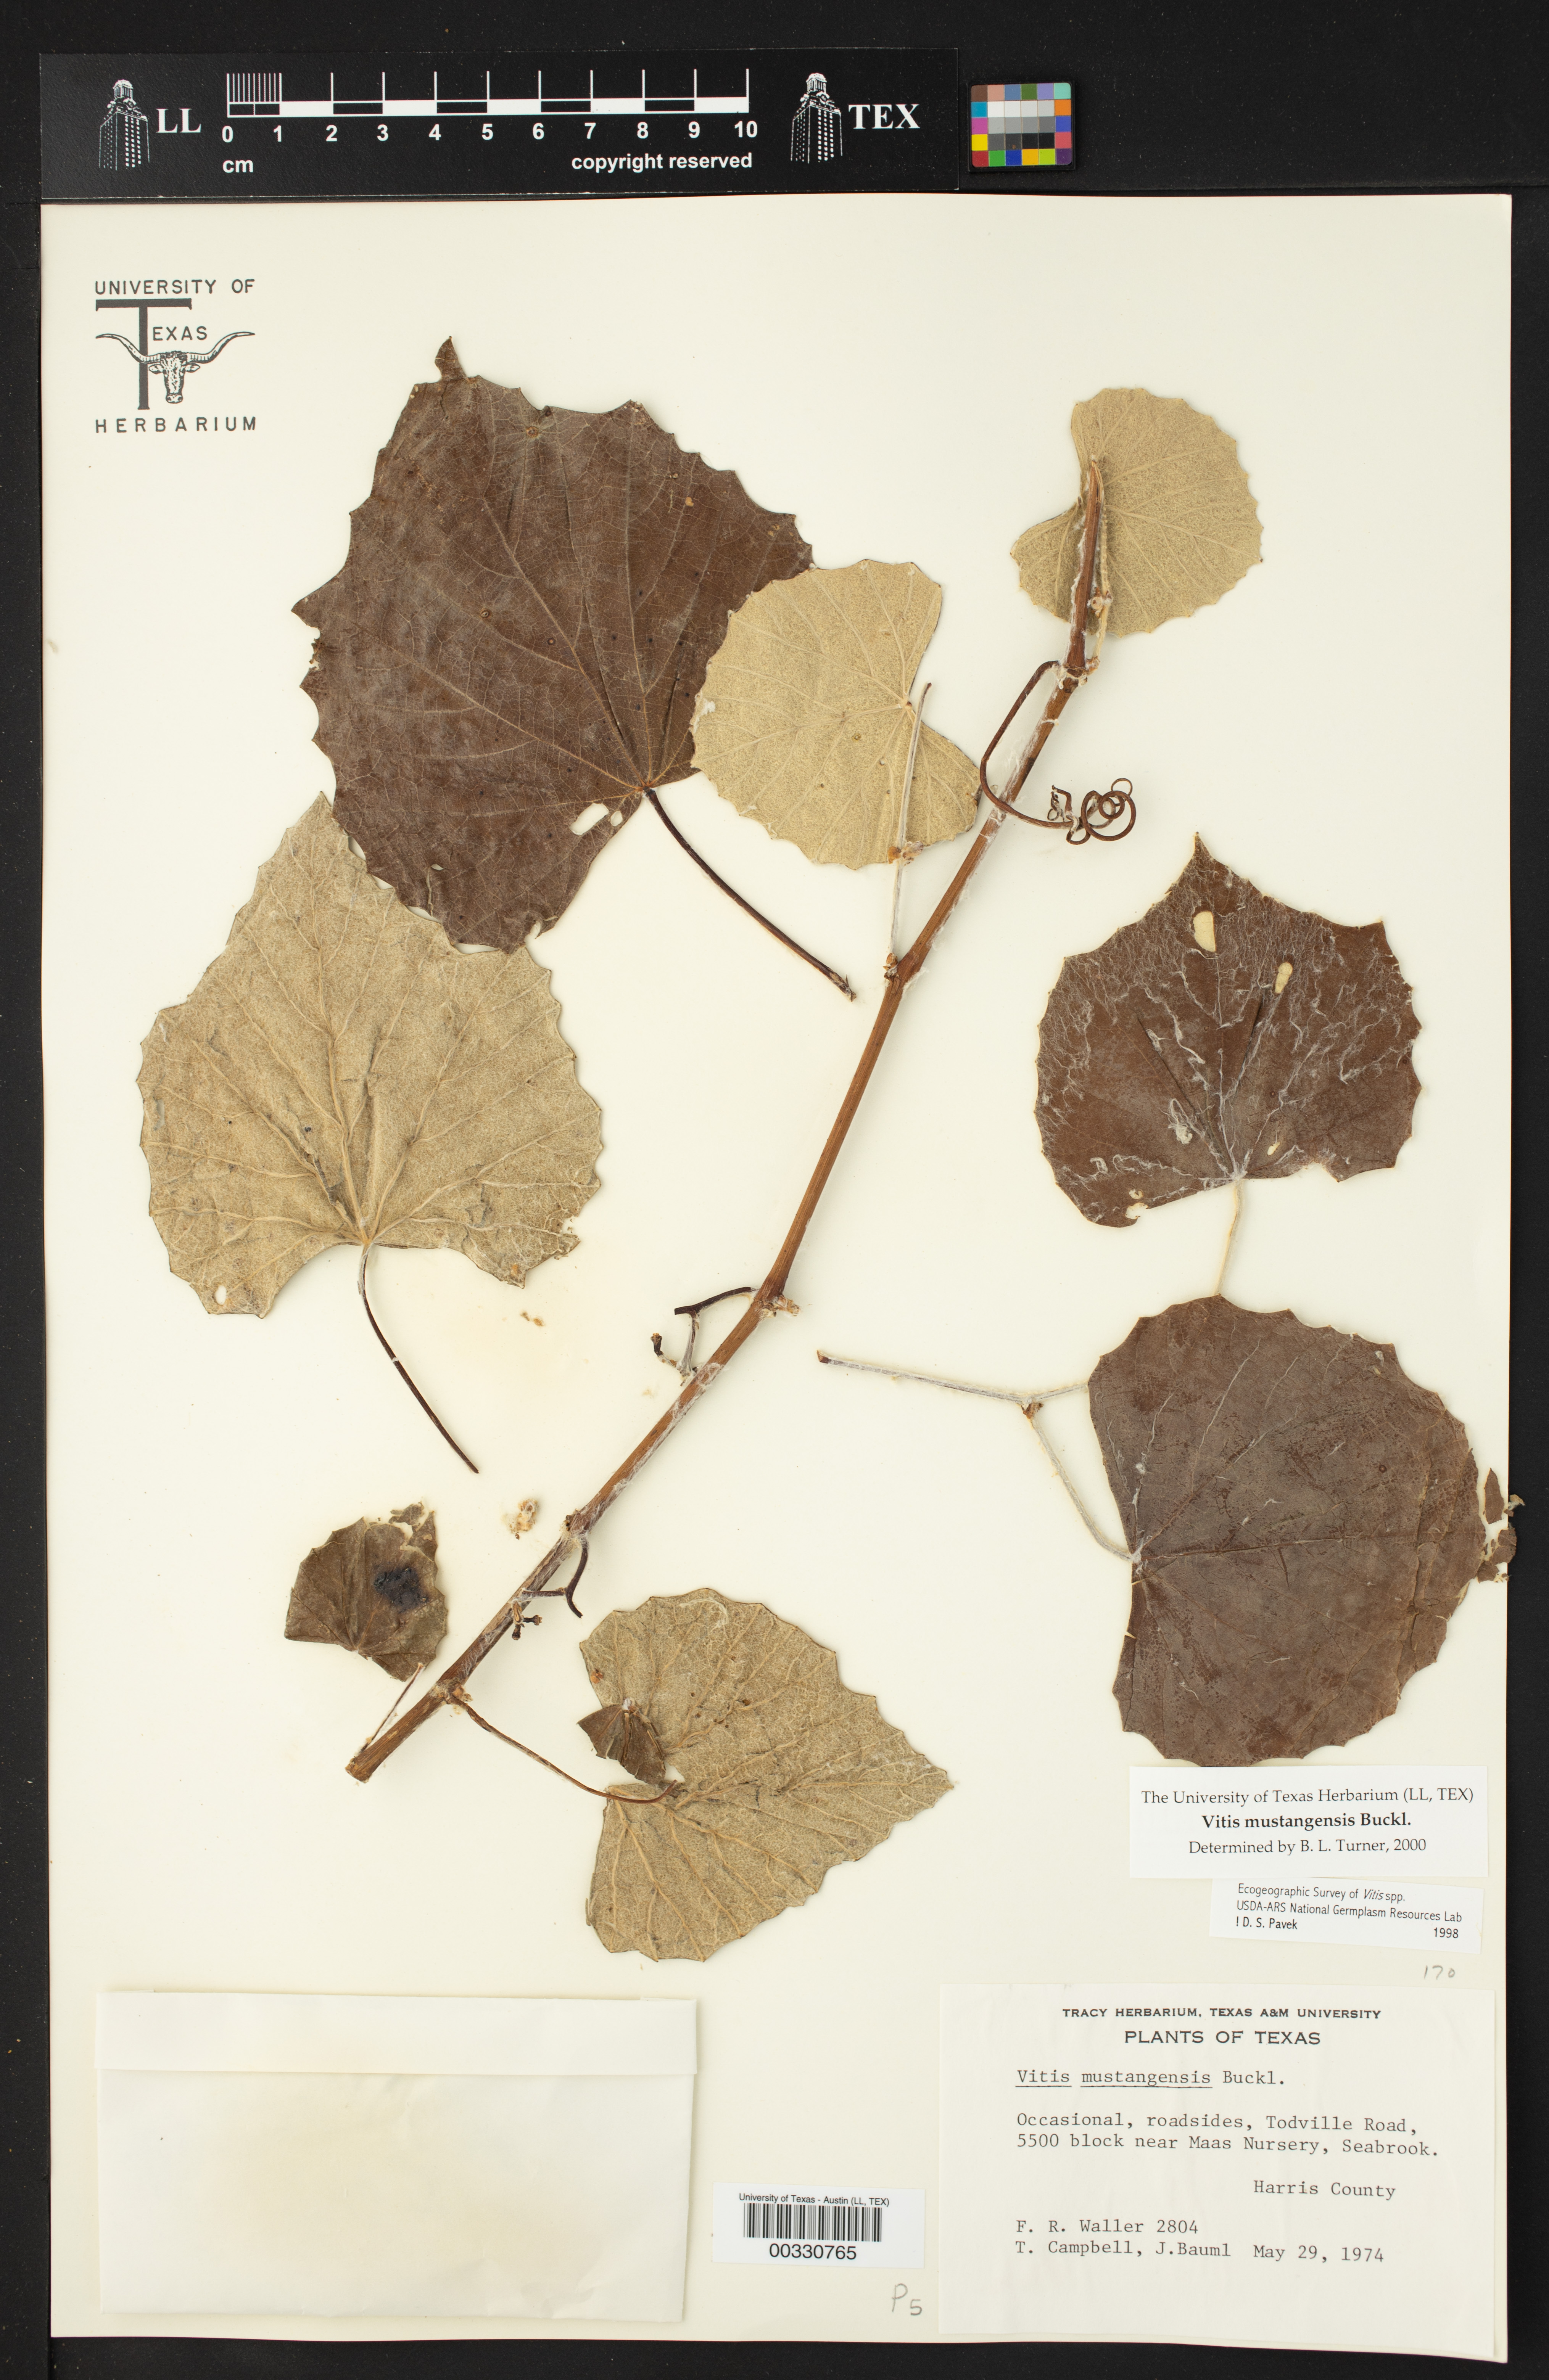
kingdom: Plantae
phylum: Tracheophyta
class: Magnoliopsida
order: Vitales
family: Vitaceae
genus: Vitis
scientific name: Vitis mustangensis
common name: Mustang grape
